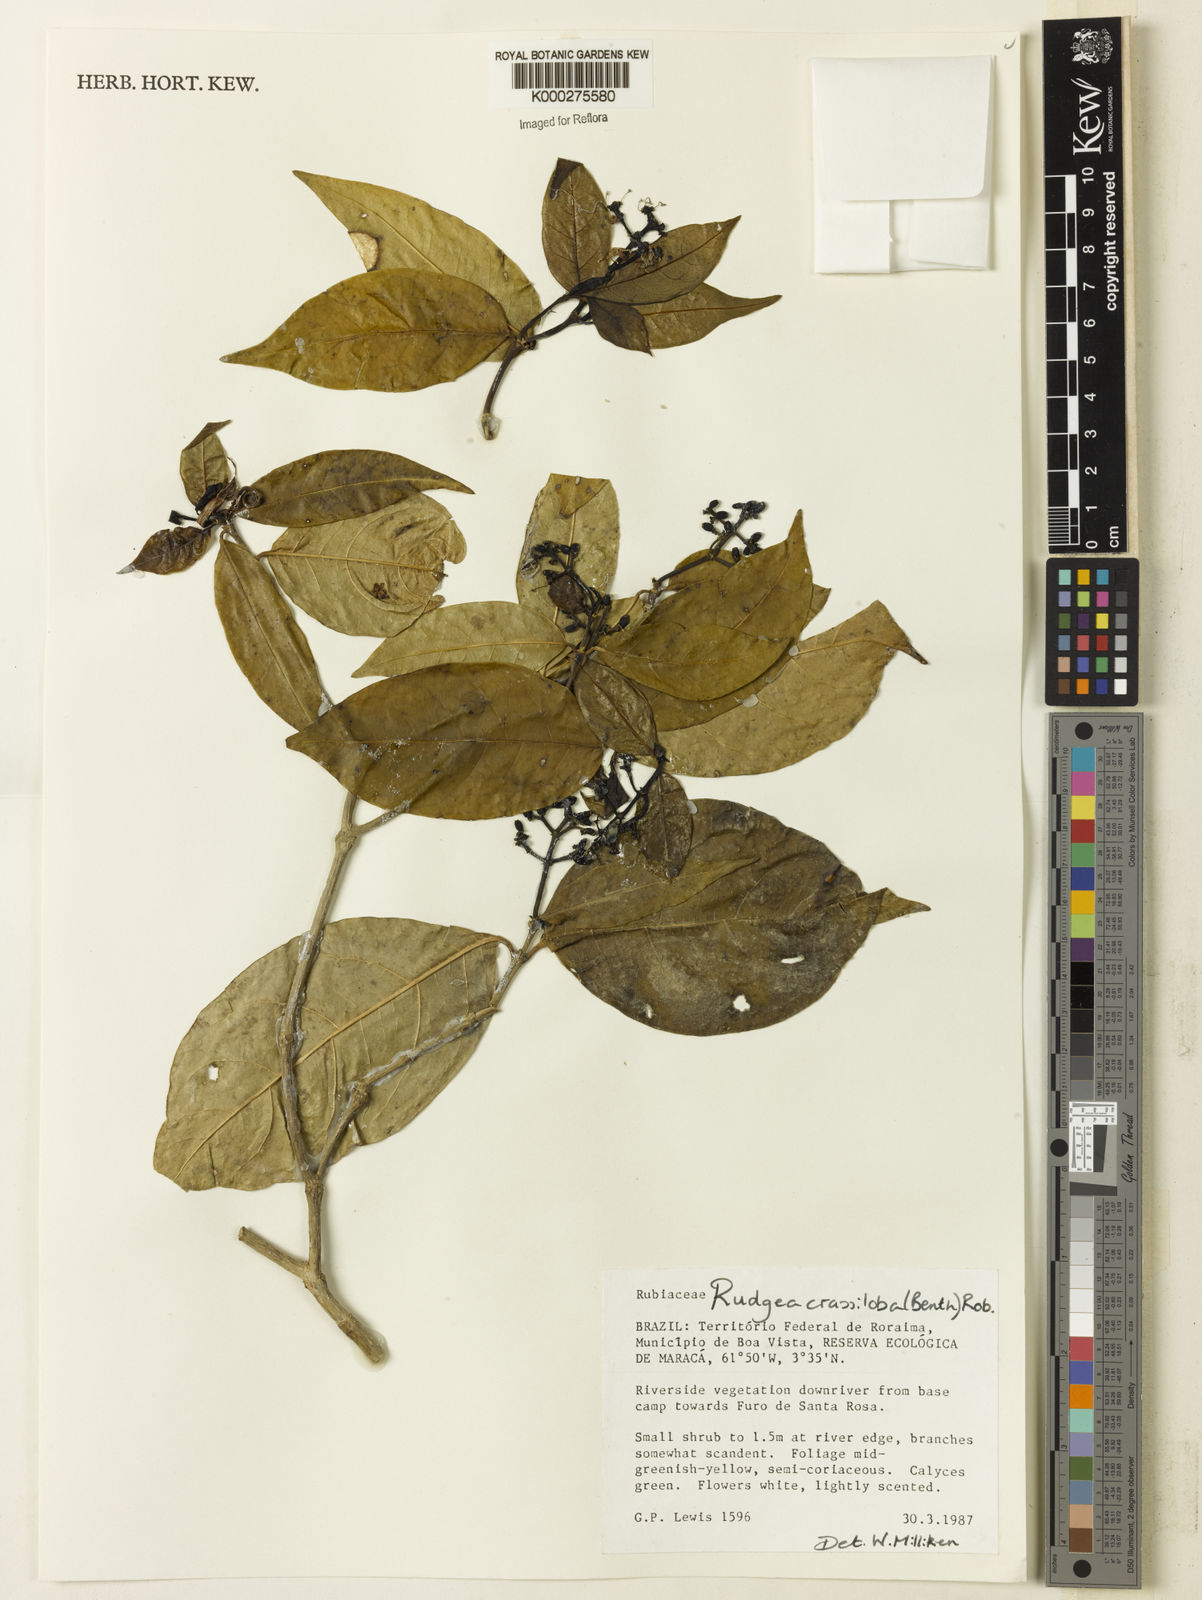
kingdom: Plantae
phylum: Tracheophyta
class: Magnoliopsida
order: Gentianales
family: Rubiaceae
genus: Rudgea
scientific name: Rudgea crassiloba
